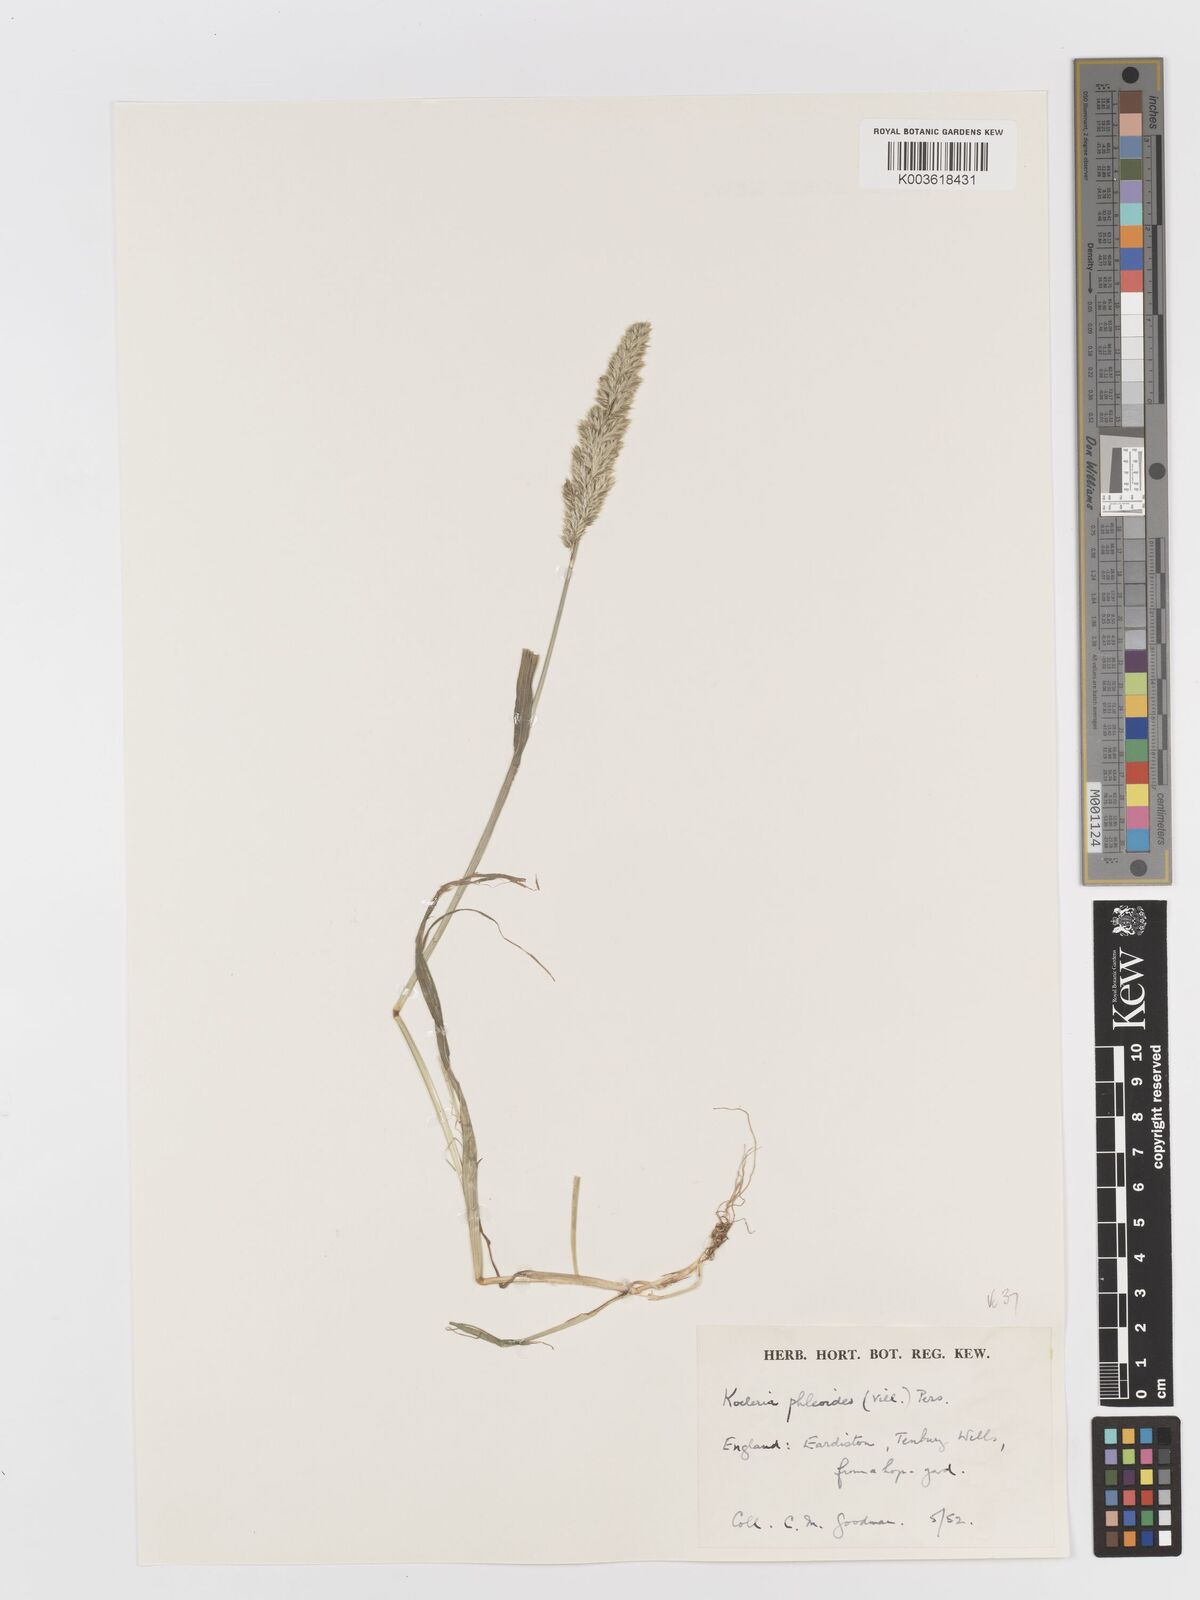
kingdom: Plantae
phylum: Tracheophyta
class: Liliopsida
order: Poales
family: Poaceae
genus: Rostraria
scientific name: Rostraria cristata
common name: Mediterranean hair-grass
